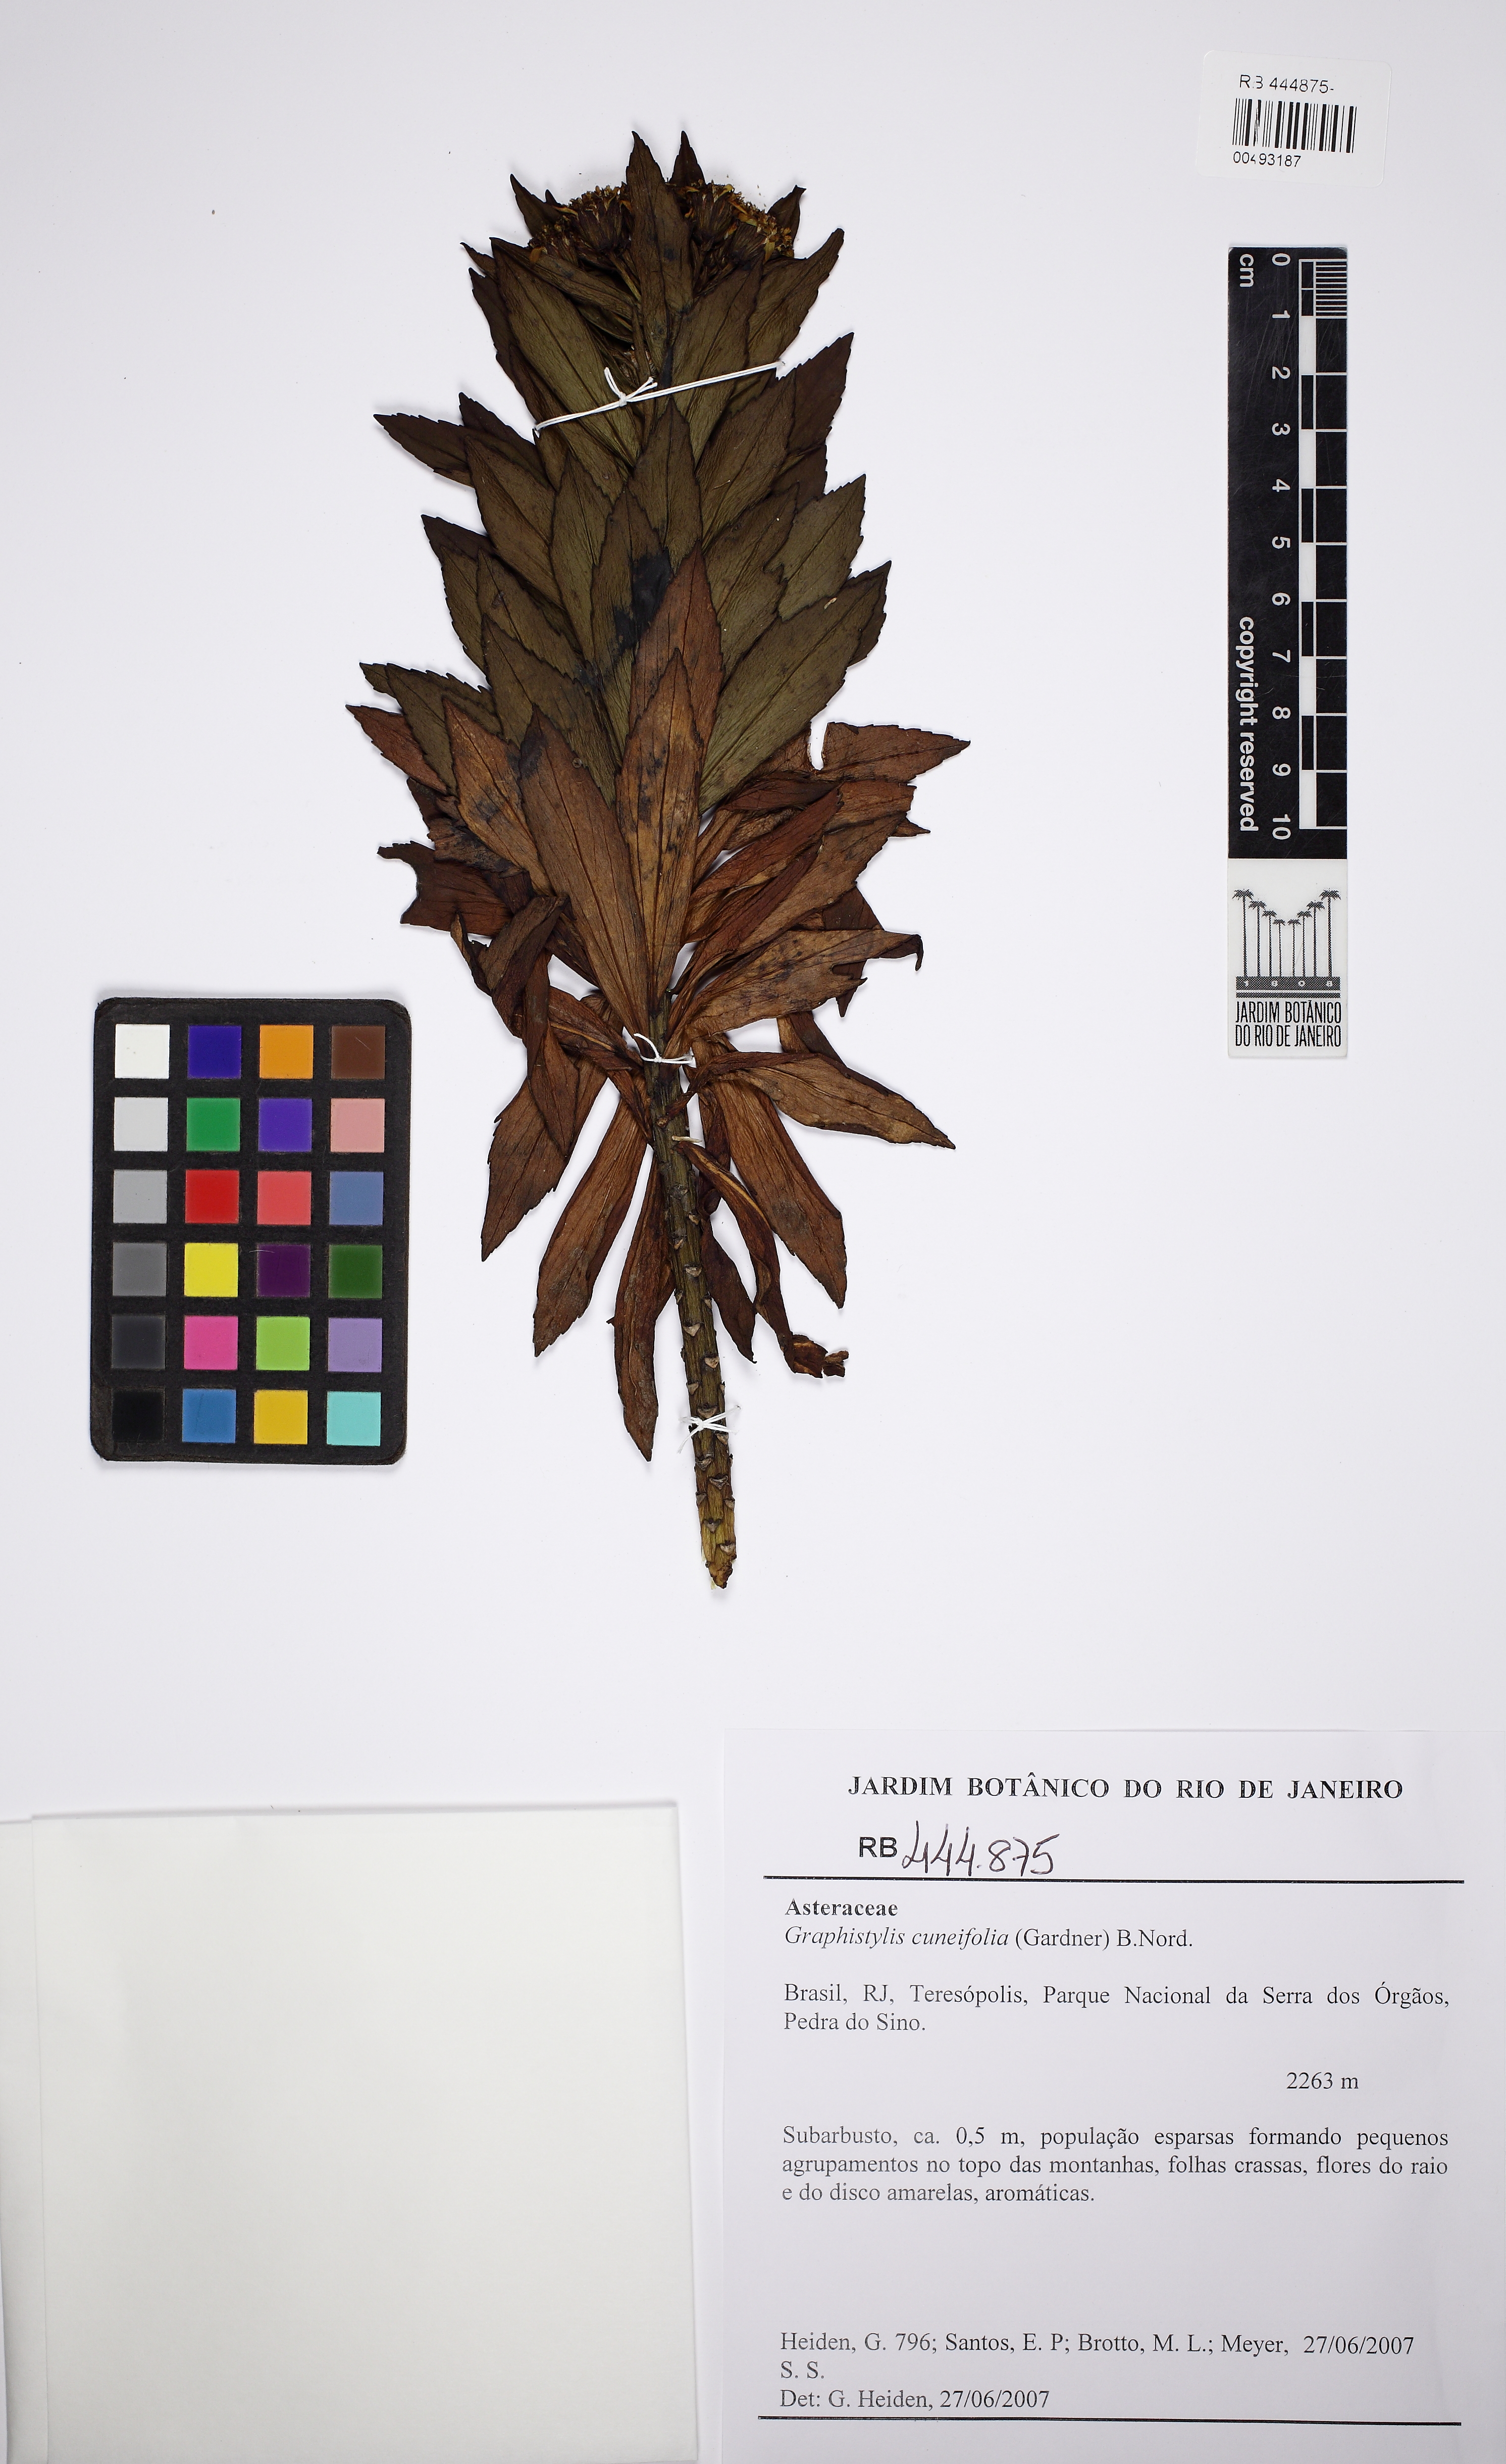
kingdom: Plantae
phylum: Tracheophyta
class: Magnoliopsida
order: Asterales
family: Asteraceae
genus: Graphistylis
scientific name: Graphistylis cuneifolia
